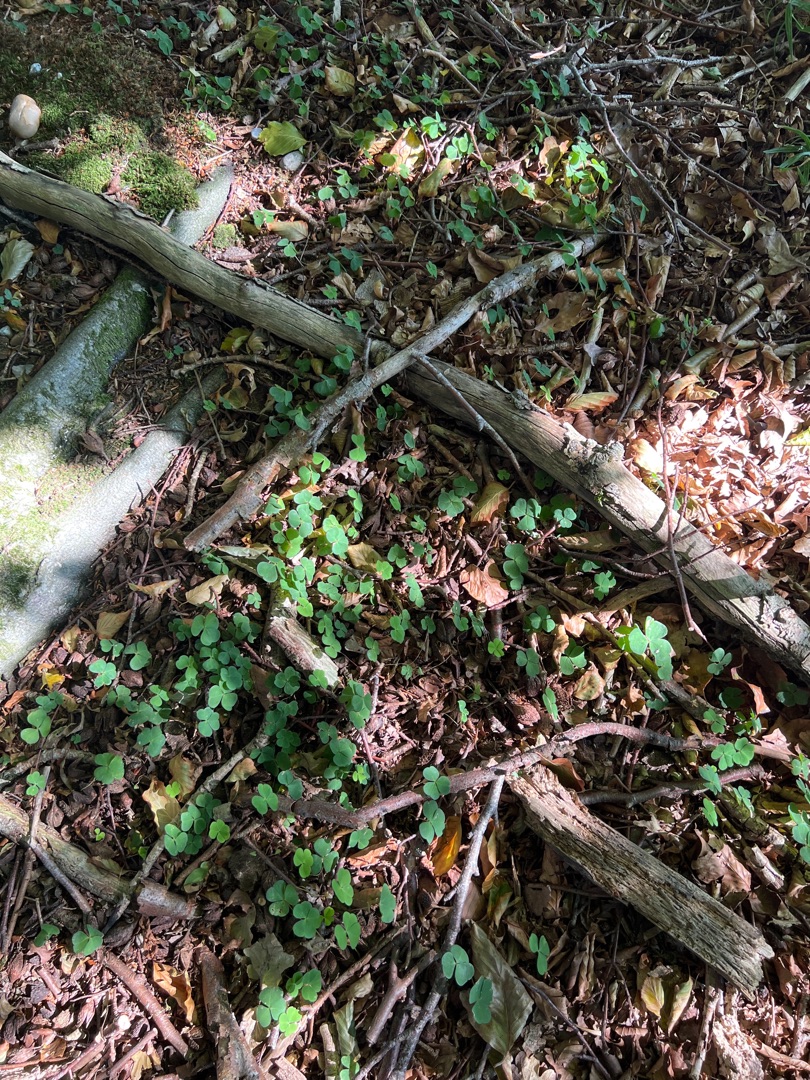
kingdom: Plantae
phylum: Tracheophyta
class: Magnoliopsida
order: Oxalidales
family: Oxalidaceae
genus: Oxalis
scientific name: Oxalis acetosella
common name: Skovsyre
